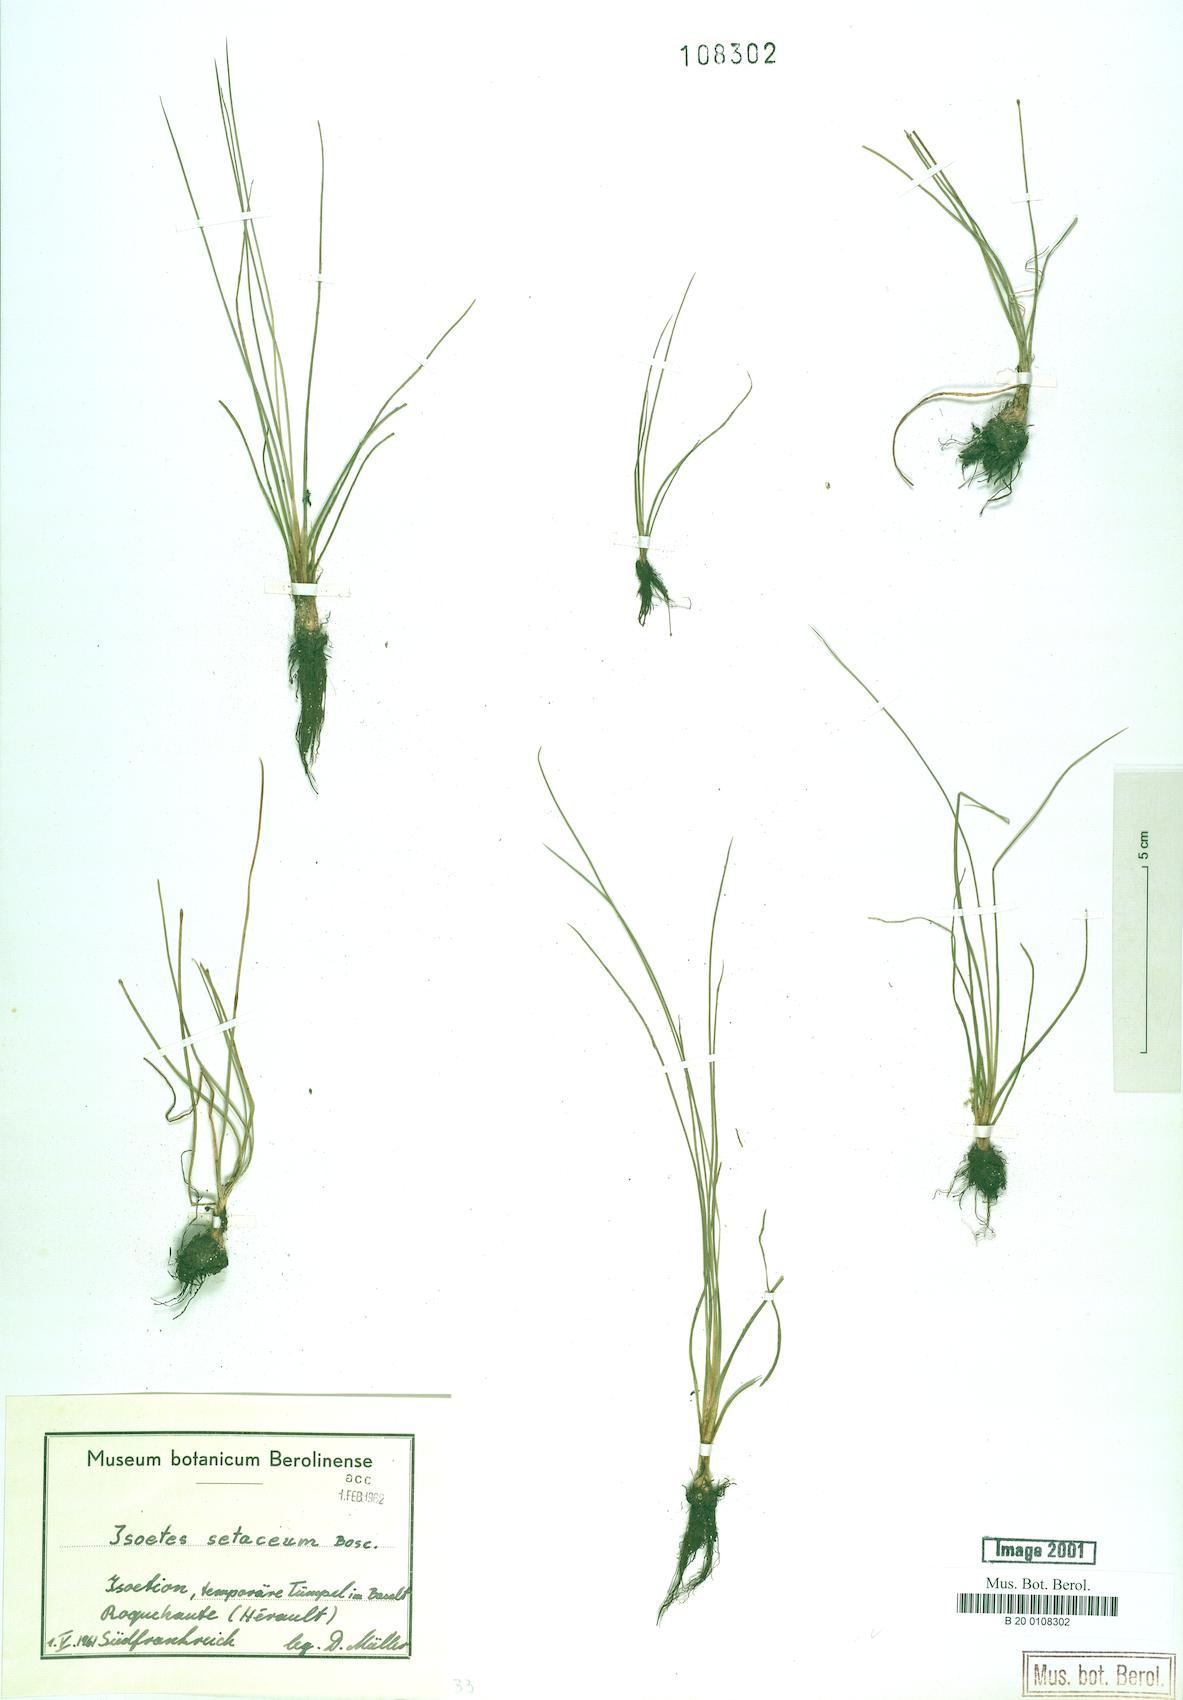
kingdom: Plantae
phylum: Tracheophyta
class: Lycopodiopsida
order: Isoetales
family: Isoetaceae
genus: Isoetes
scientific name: Isoetes lacustris
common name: Common quillwort
